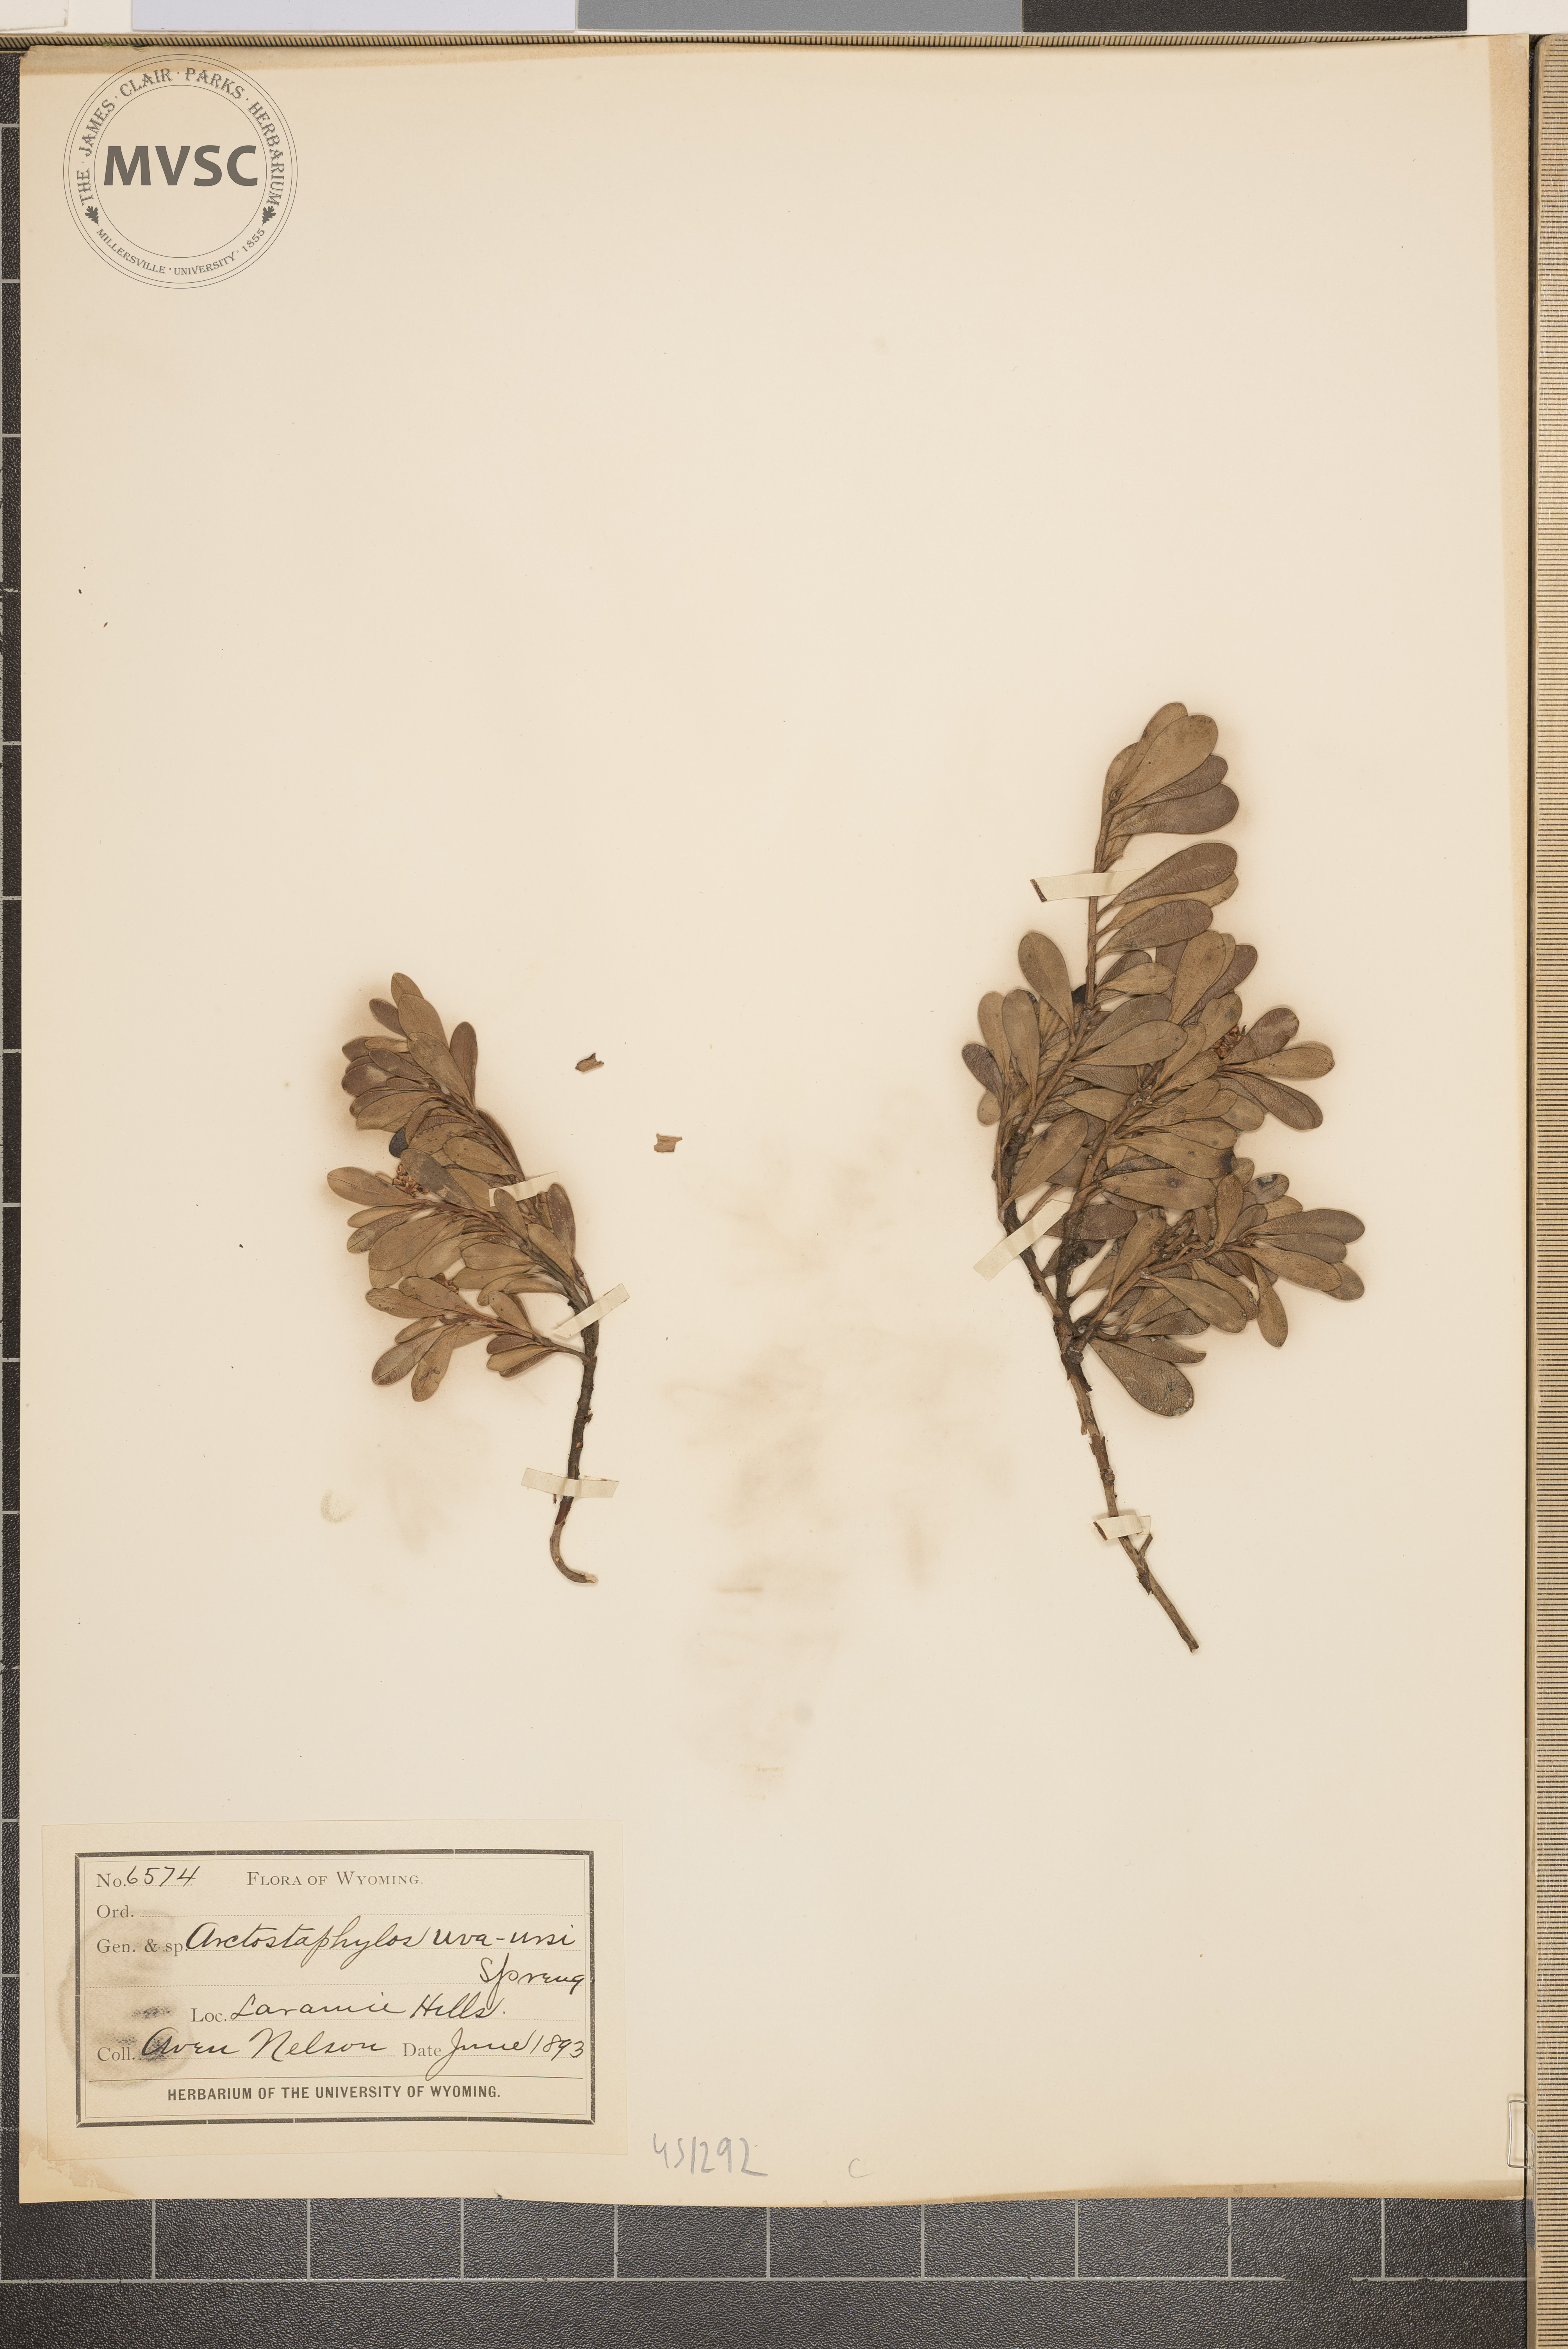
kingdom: Plantae
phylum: Tracheophyta
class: Magnoliopsida
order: Ericales
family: Ericaceae
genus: Arctostaphylos
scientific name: Arctostaphylos uva-ursi
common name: Bearberry
